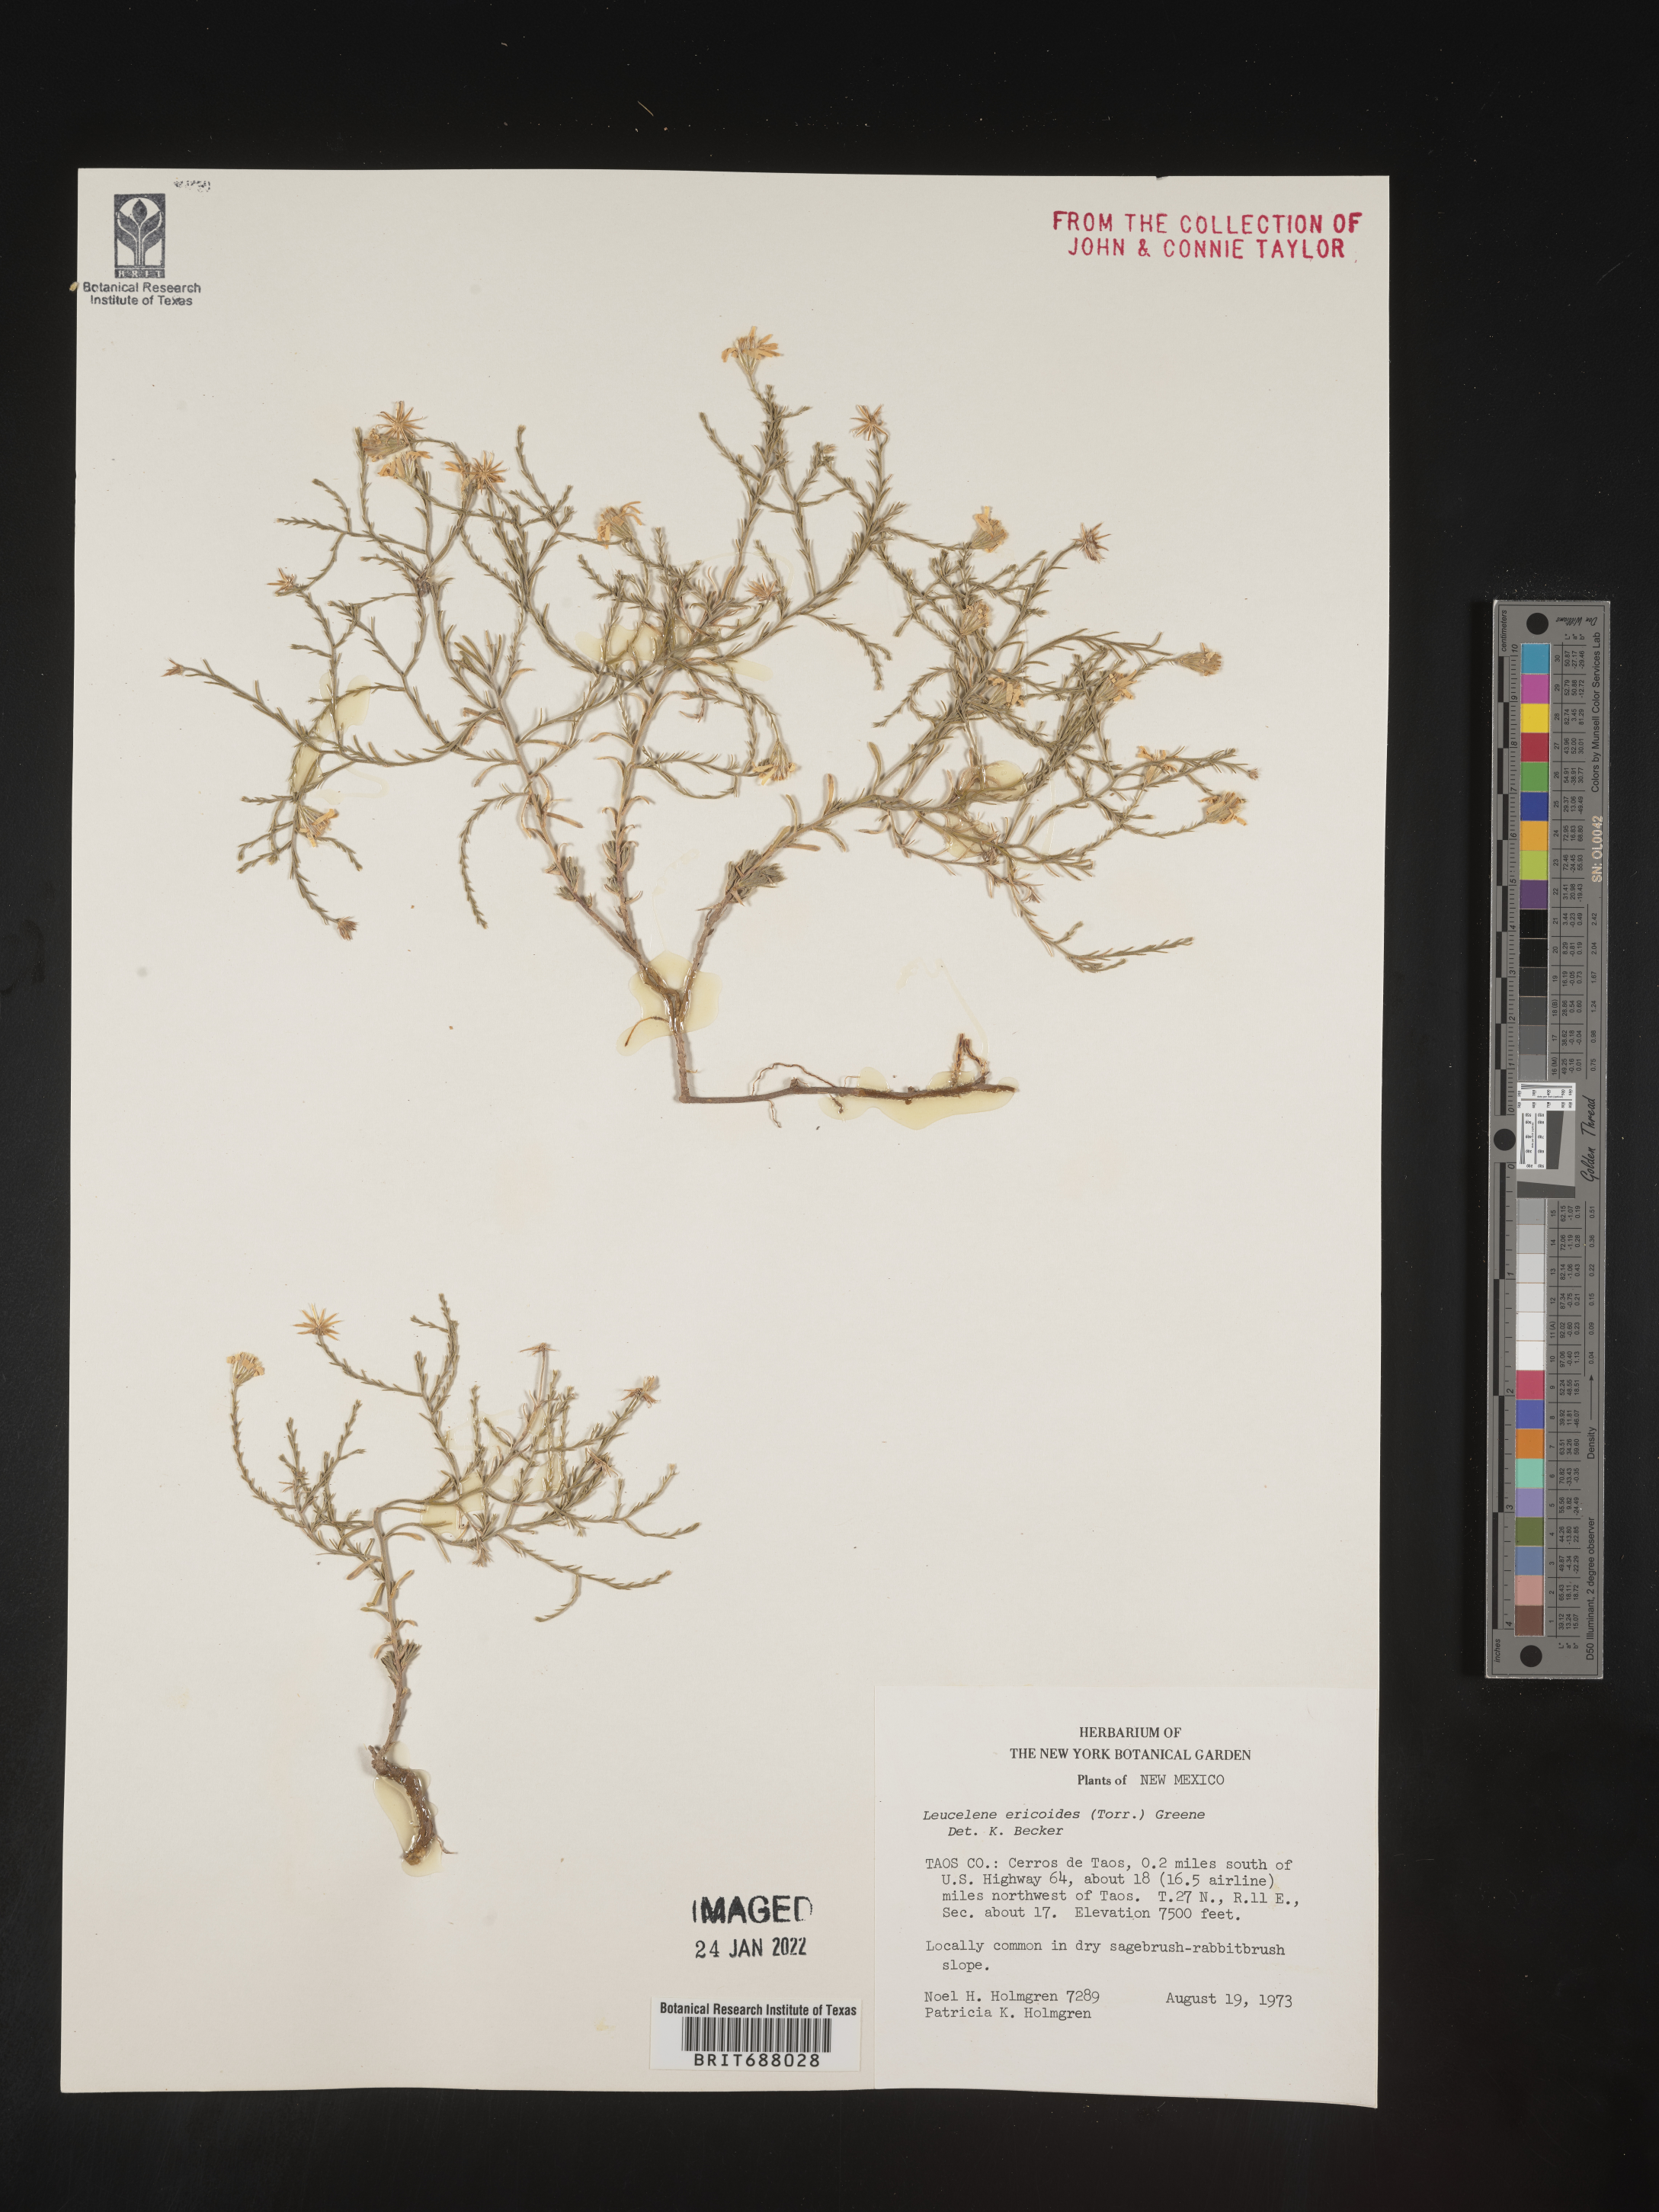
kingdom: Plantae
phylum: Tracheophyta
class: Magnoliopsida
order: Asterales
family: Asteraceae
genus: Chaetopappa
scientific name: Chaetopappa ericoides
